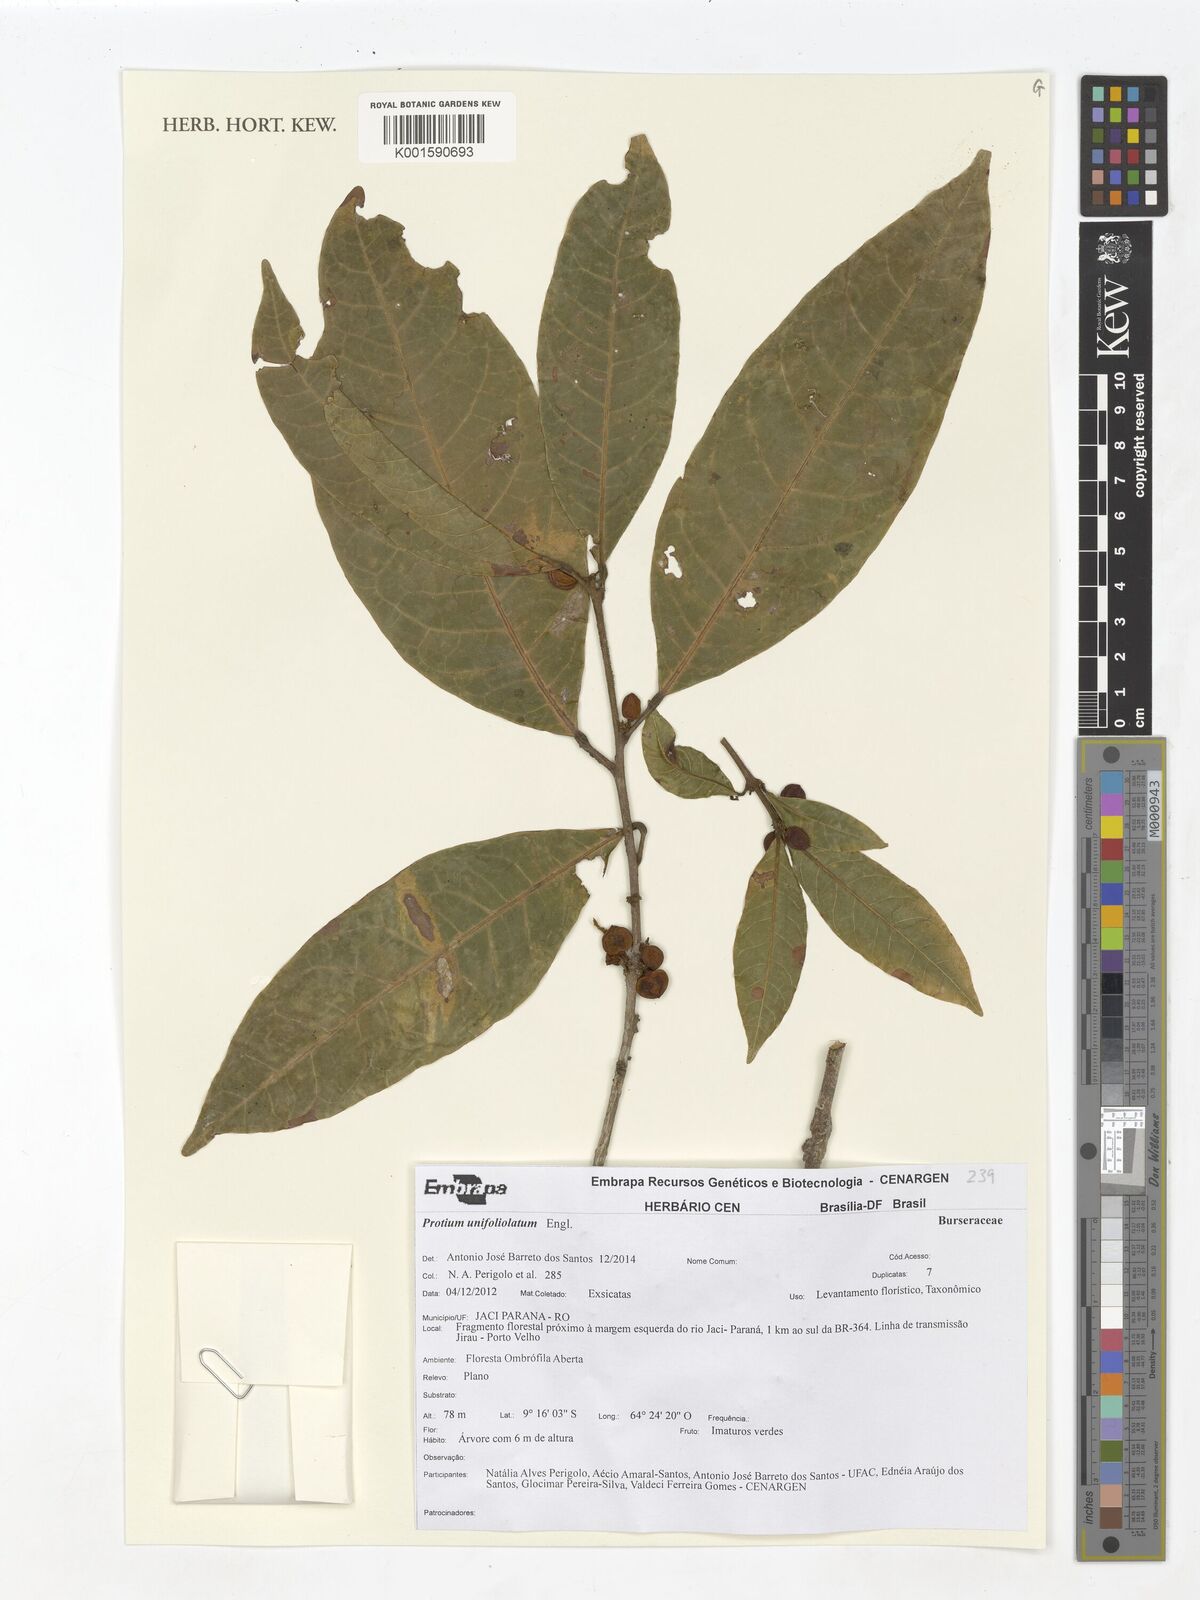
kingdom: Plantae
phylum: Tracheophyta
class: Magnoliopsida
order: Sapindales
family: Burseraceae
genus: Protium
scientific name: Protium unifoliolatum
